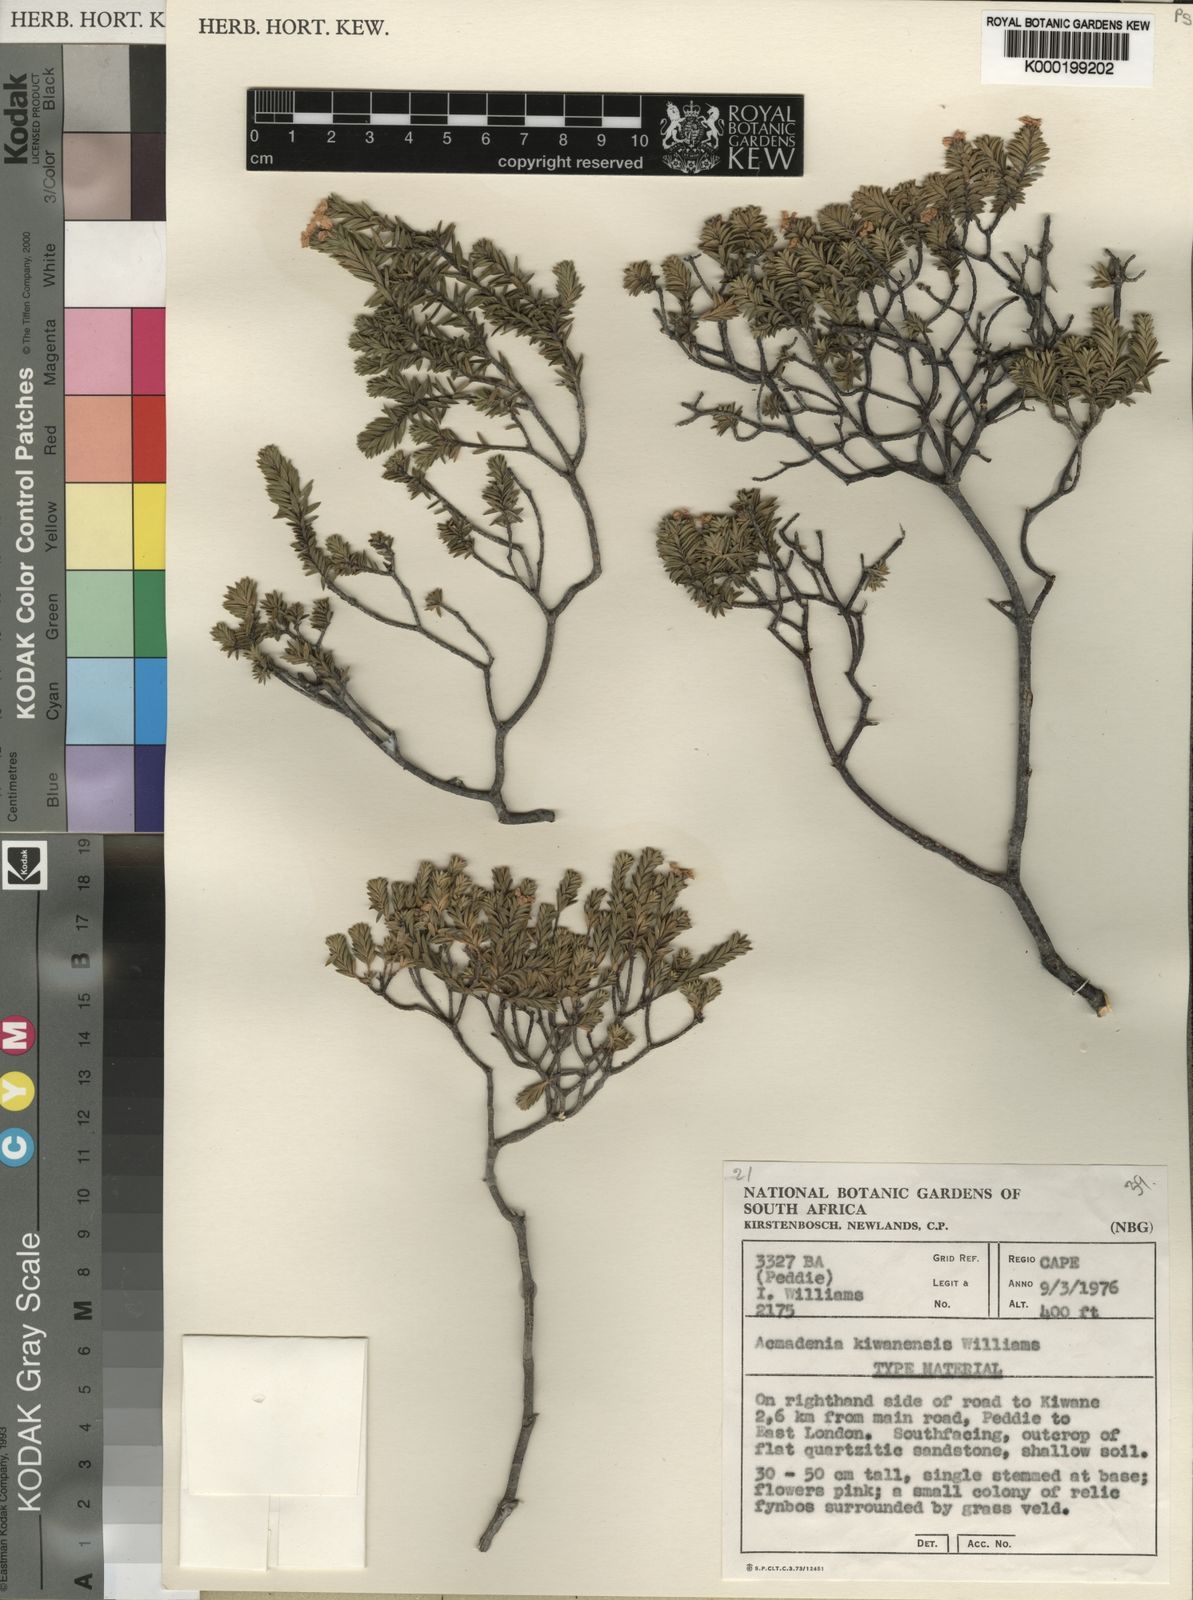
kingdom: Plantae
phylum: Tracheophyta
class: Magnoliopsida
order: Sapindales
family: Rutaceae
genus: Acmadenia
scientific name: Acmadenia kiwanensis
